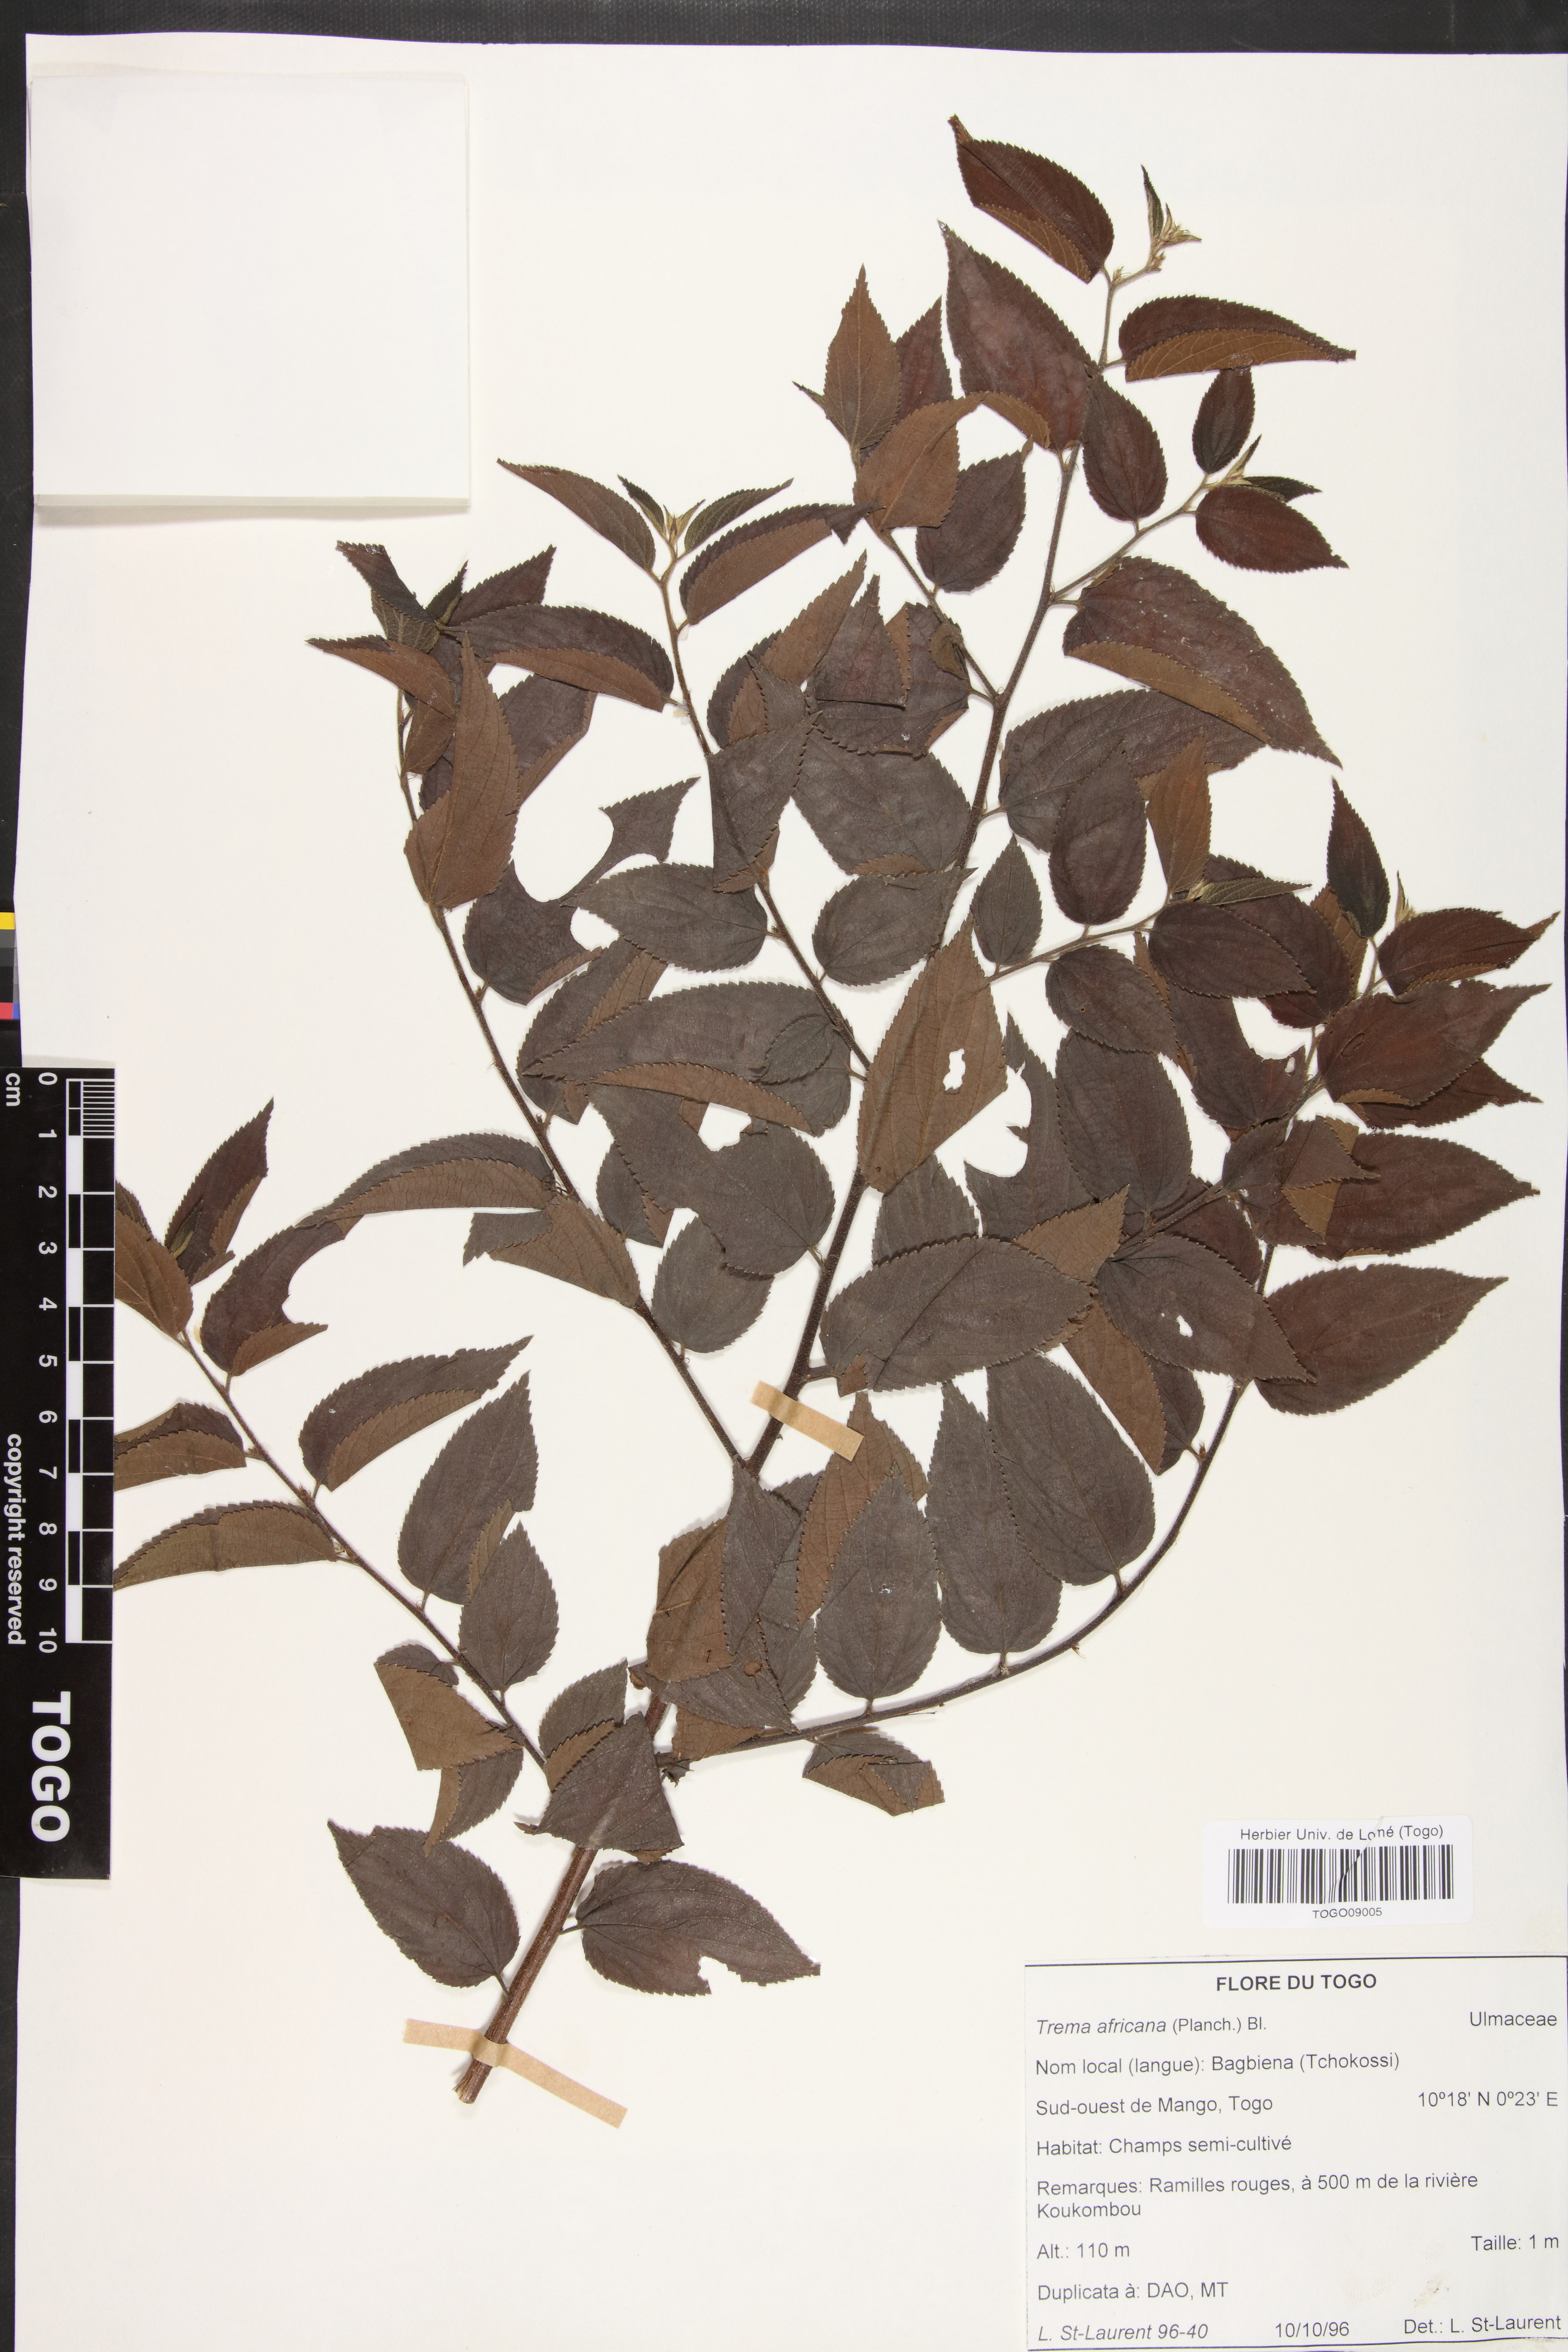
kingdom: Plantae
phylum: Tracheophyta
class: Magnoliopsida
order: Rosales
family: Cannabaceae
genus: Trema
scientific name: Trema orientale
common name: Indian charcoal tree
